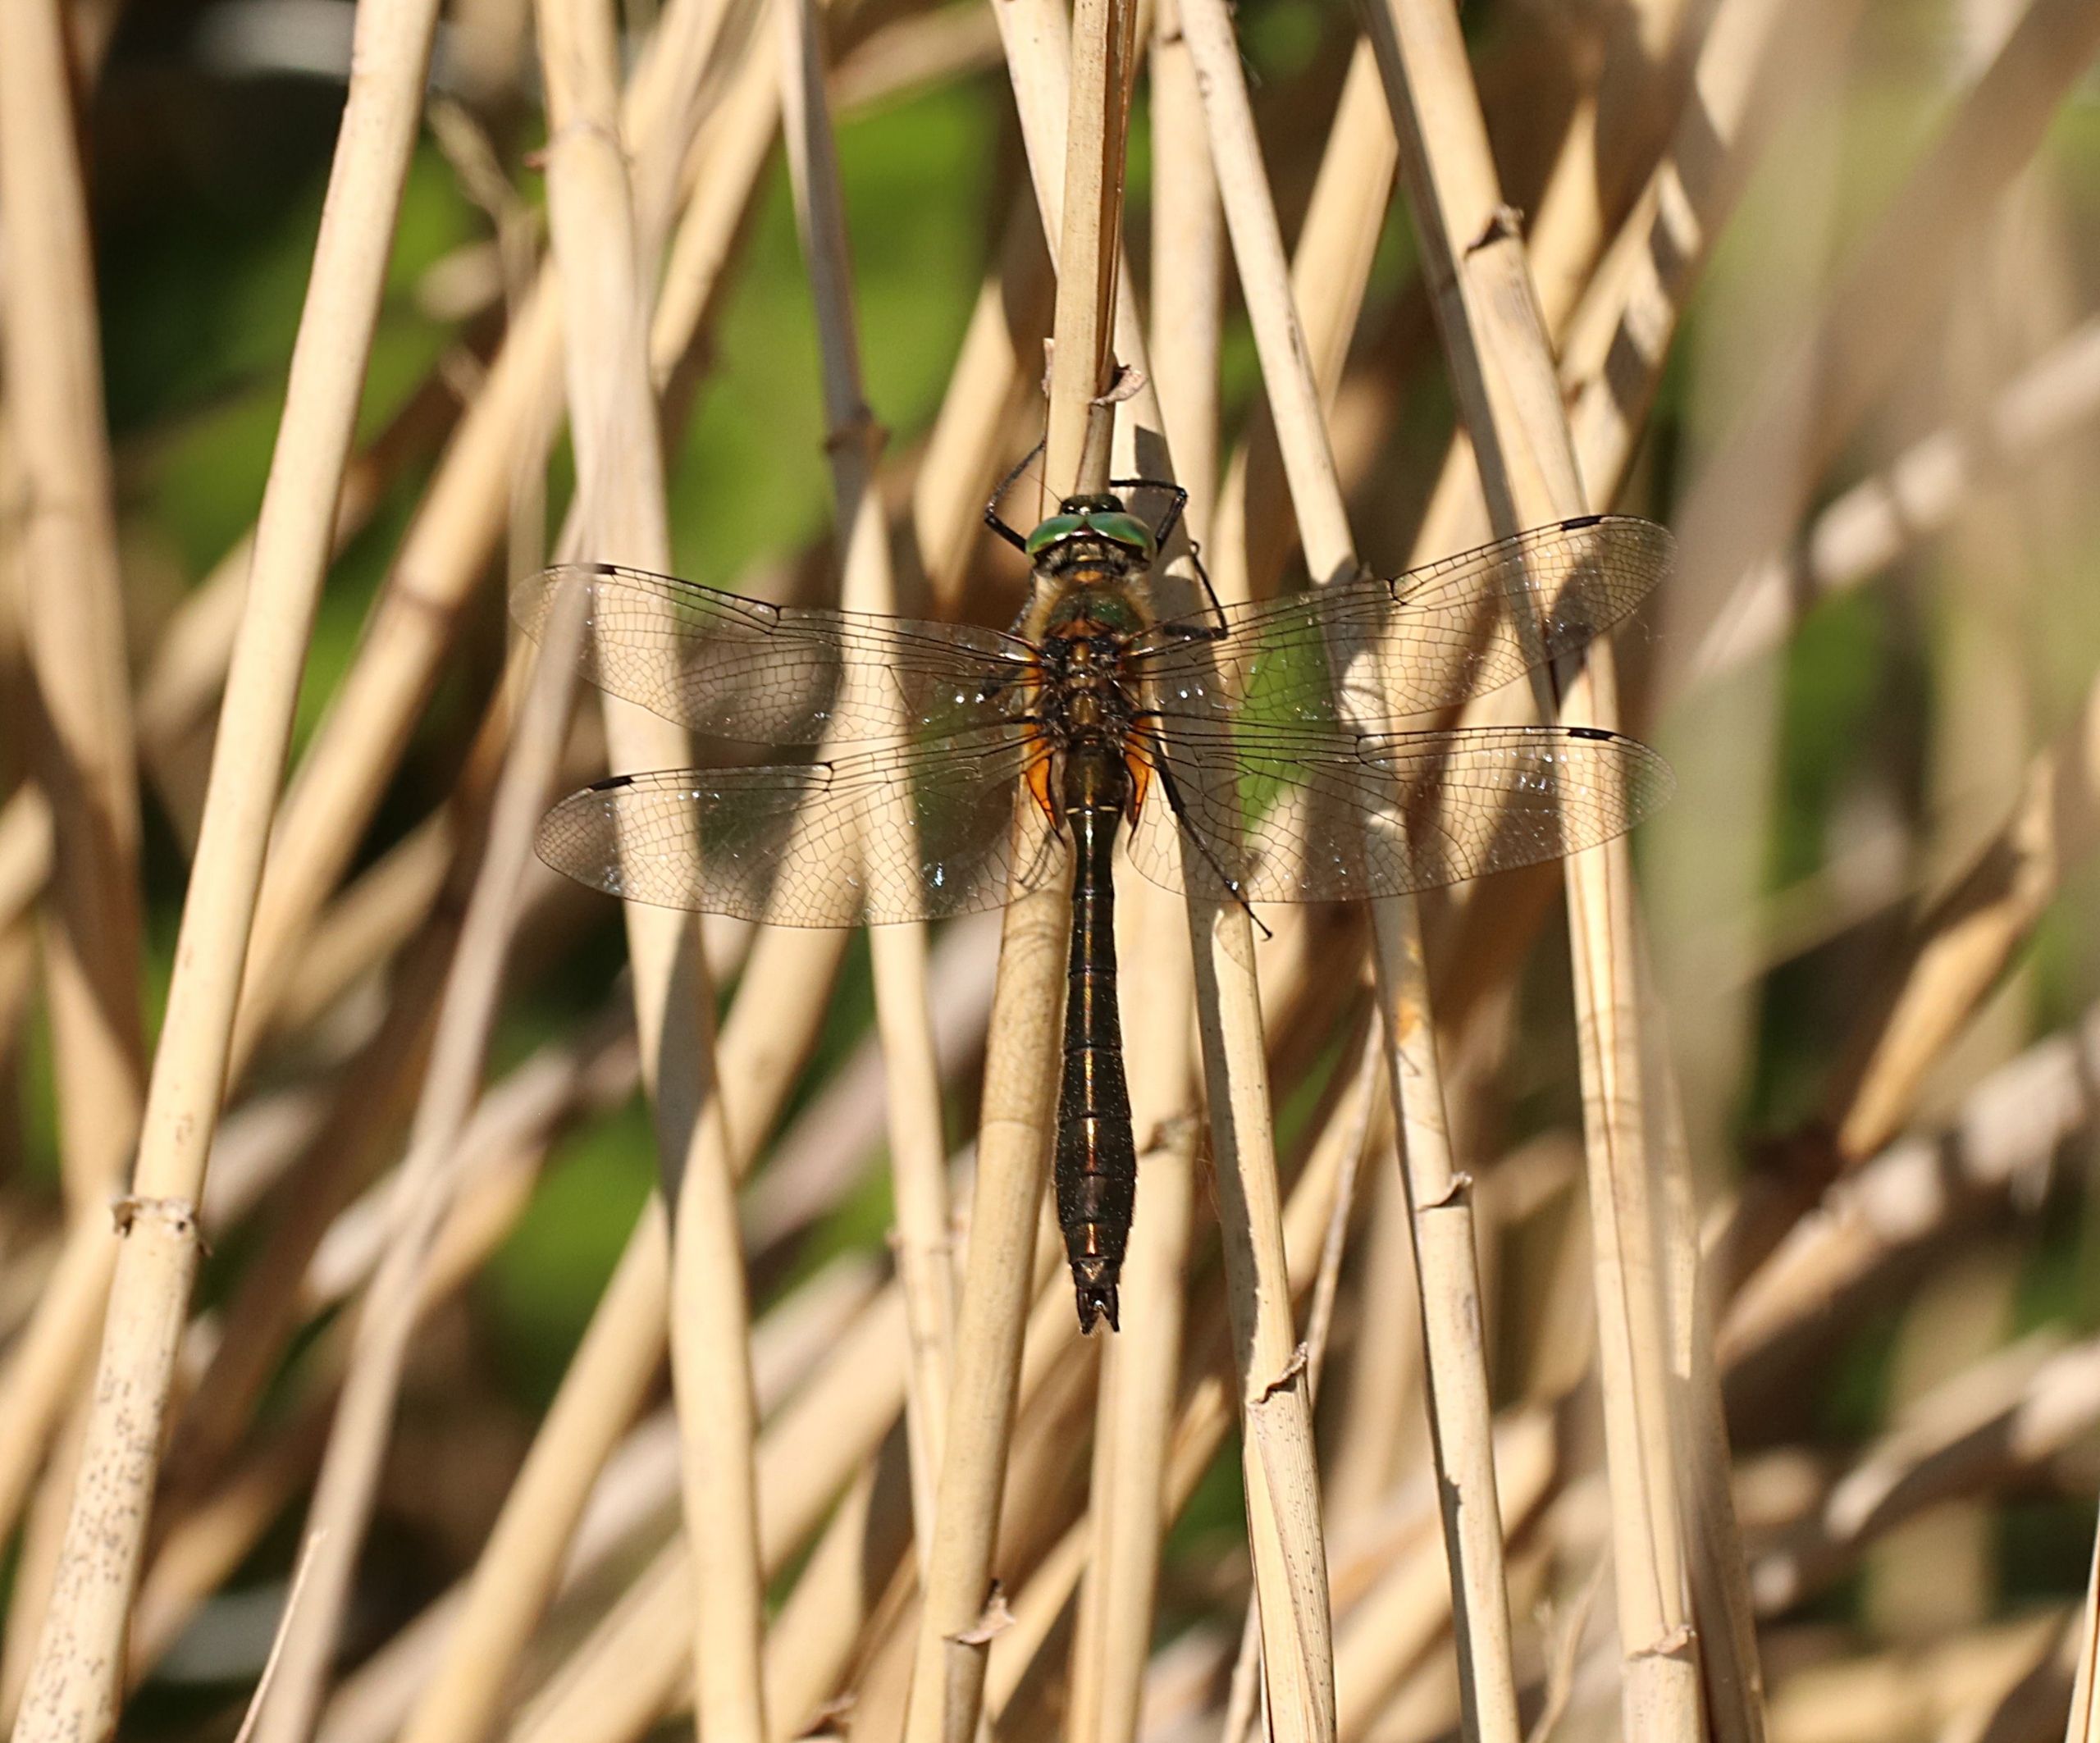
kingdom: Animalia
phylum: Arthropoda
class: Insecta
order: Odonata
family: Corduliidae
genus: Cordulia
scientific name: Cordulia aenea
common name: Grøn smaragdlibel
